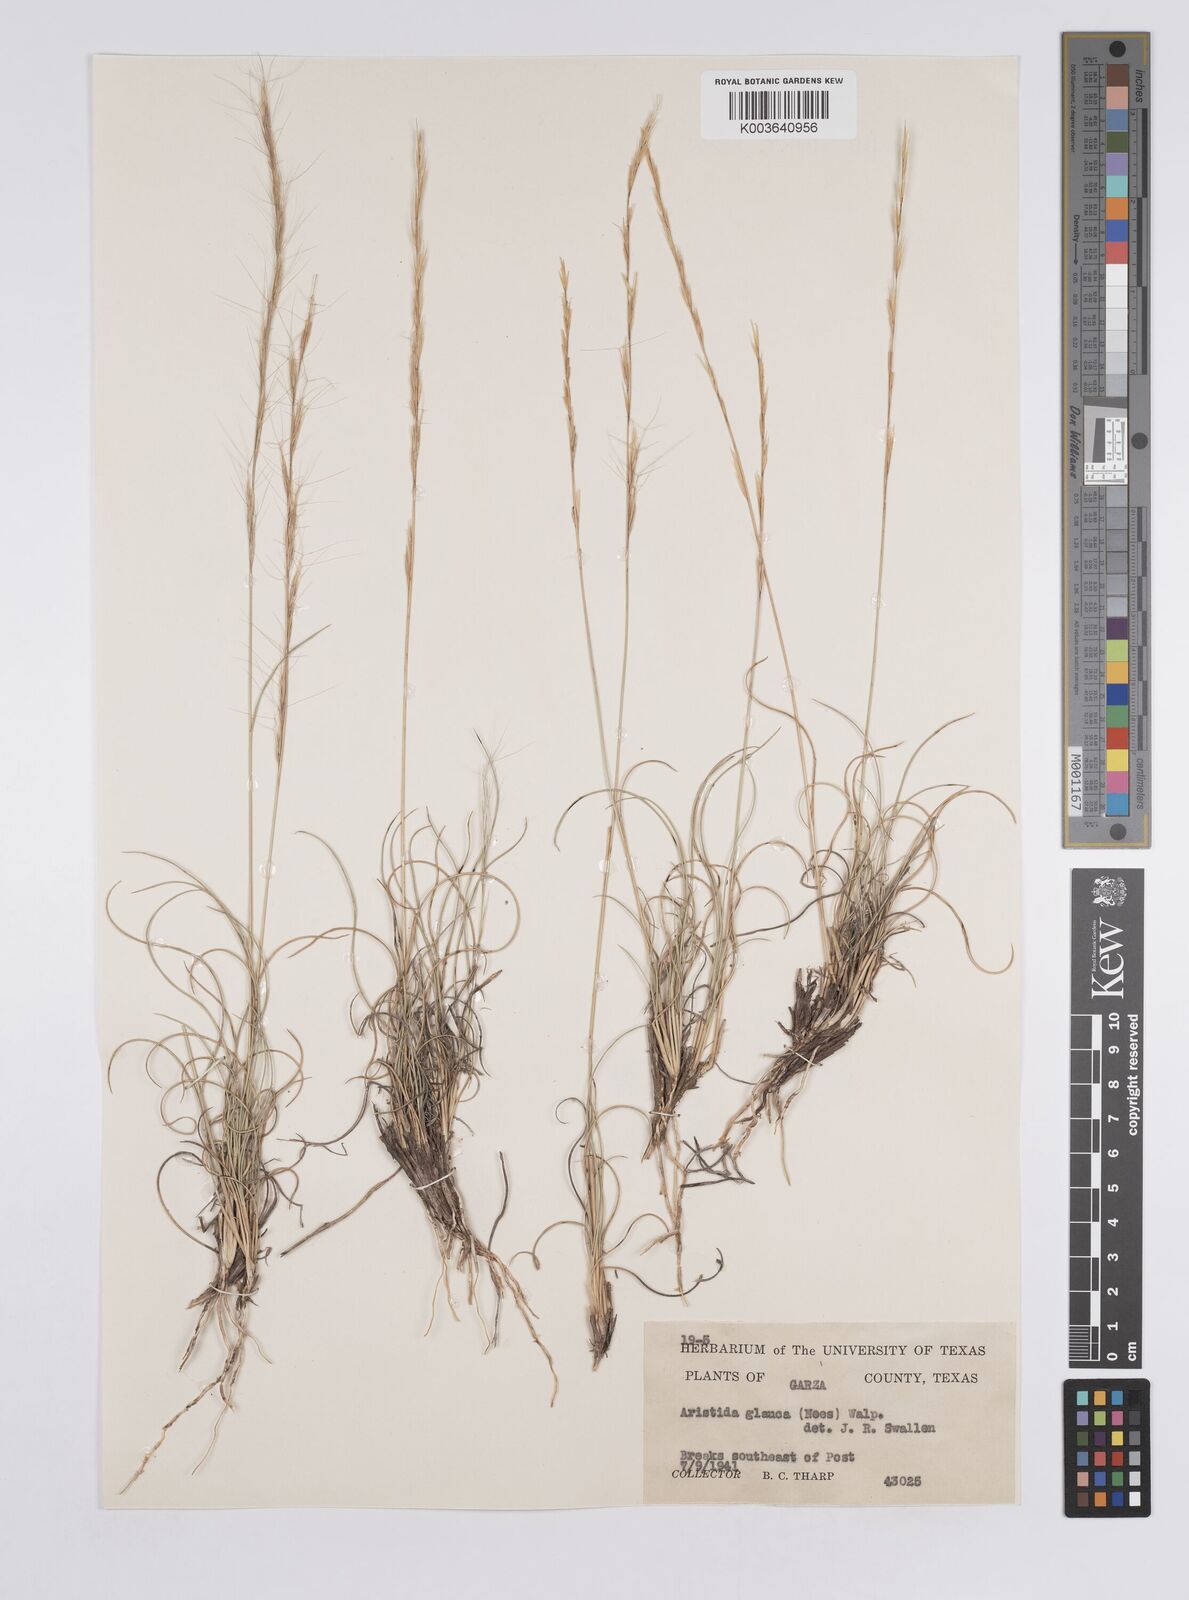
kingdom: Plantae
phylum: Tracheophyta
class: Liliopsida
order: Poales
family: Poaceae
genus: Aristida
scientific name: Aristida purpurea
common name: Purple threeawn
